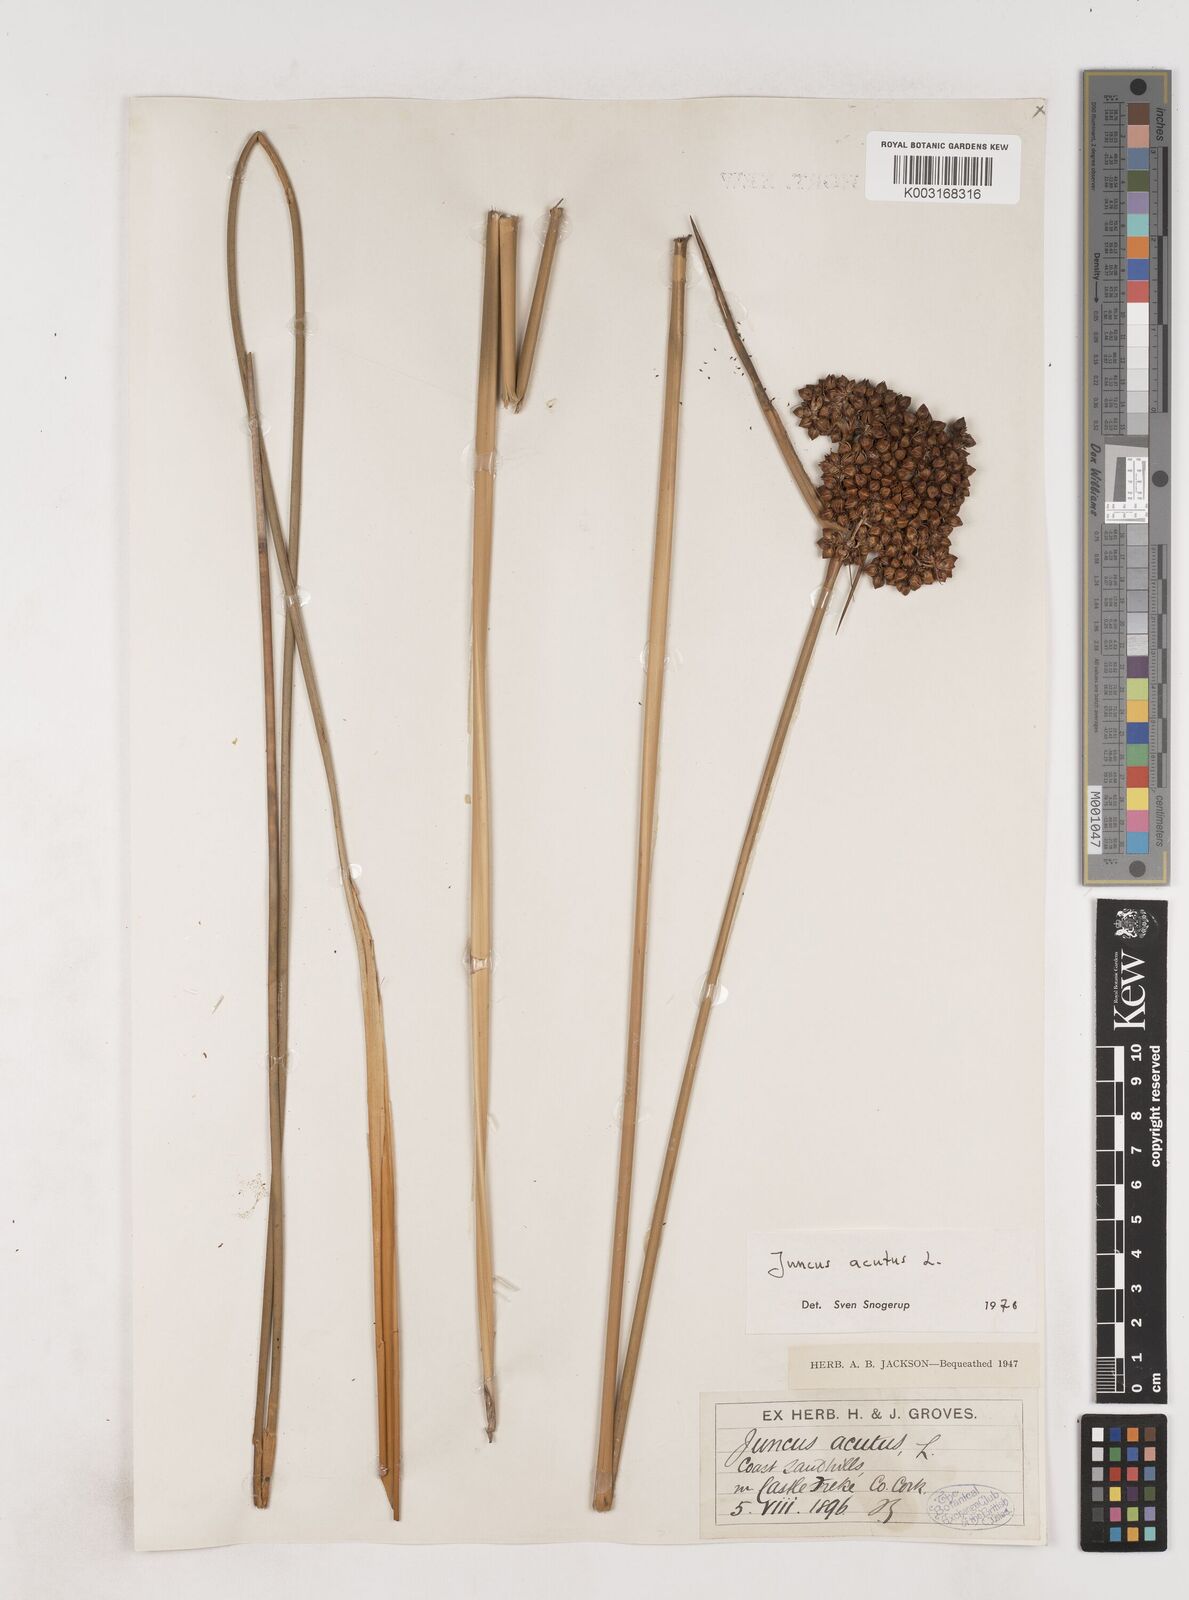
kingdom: Plantae
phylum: Tracheophyta
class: Liliopsida
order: Poales
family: Juncaceae
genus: Juncus
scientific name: Juncus acutus
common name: Sharp rush
